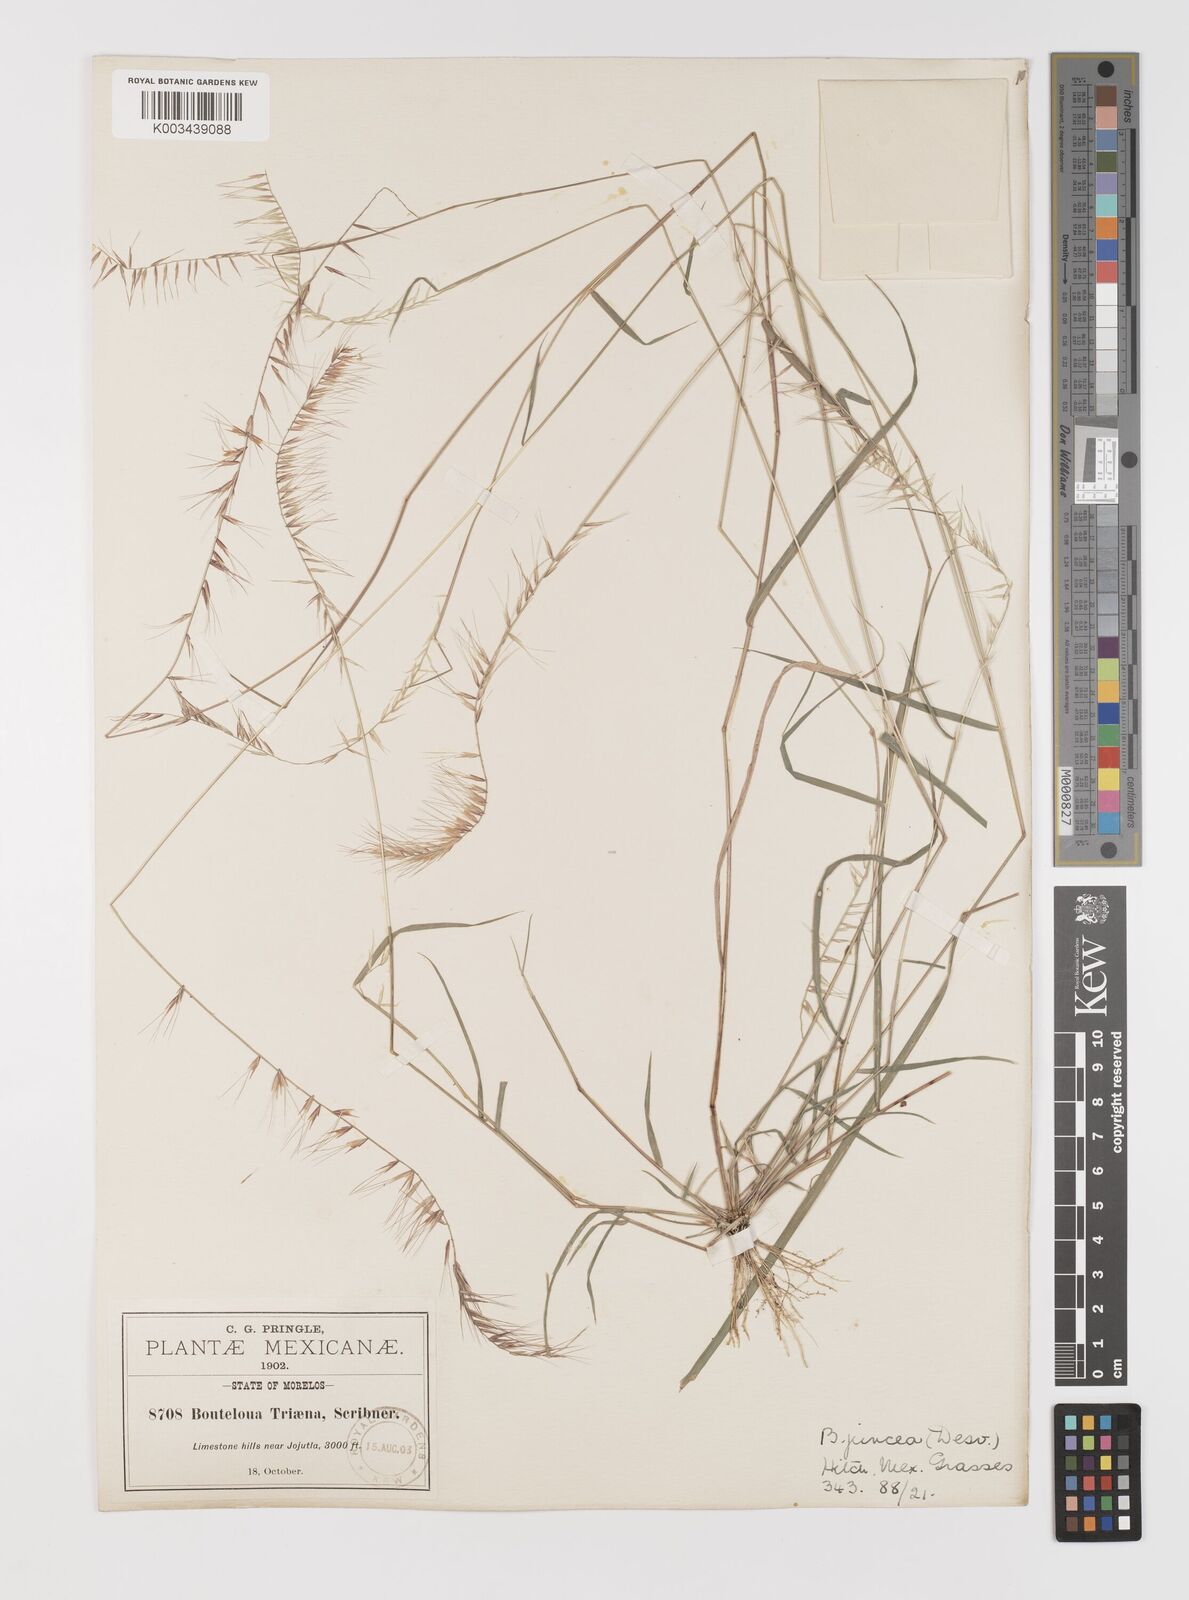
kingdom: Plantae
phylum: Tracheophyta
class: Liliopsida
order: Poales
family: Poaceae
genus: Bouteloua
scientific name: Bouteloua triaena
